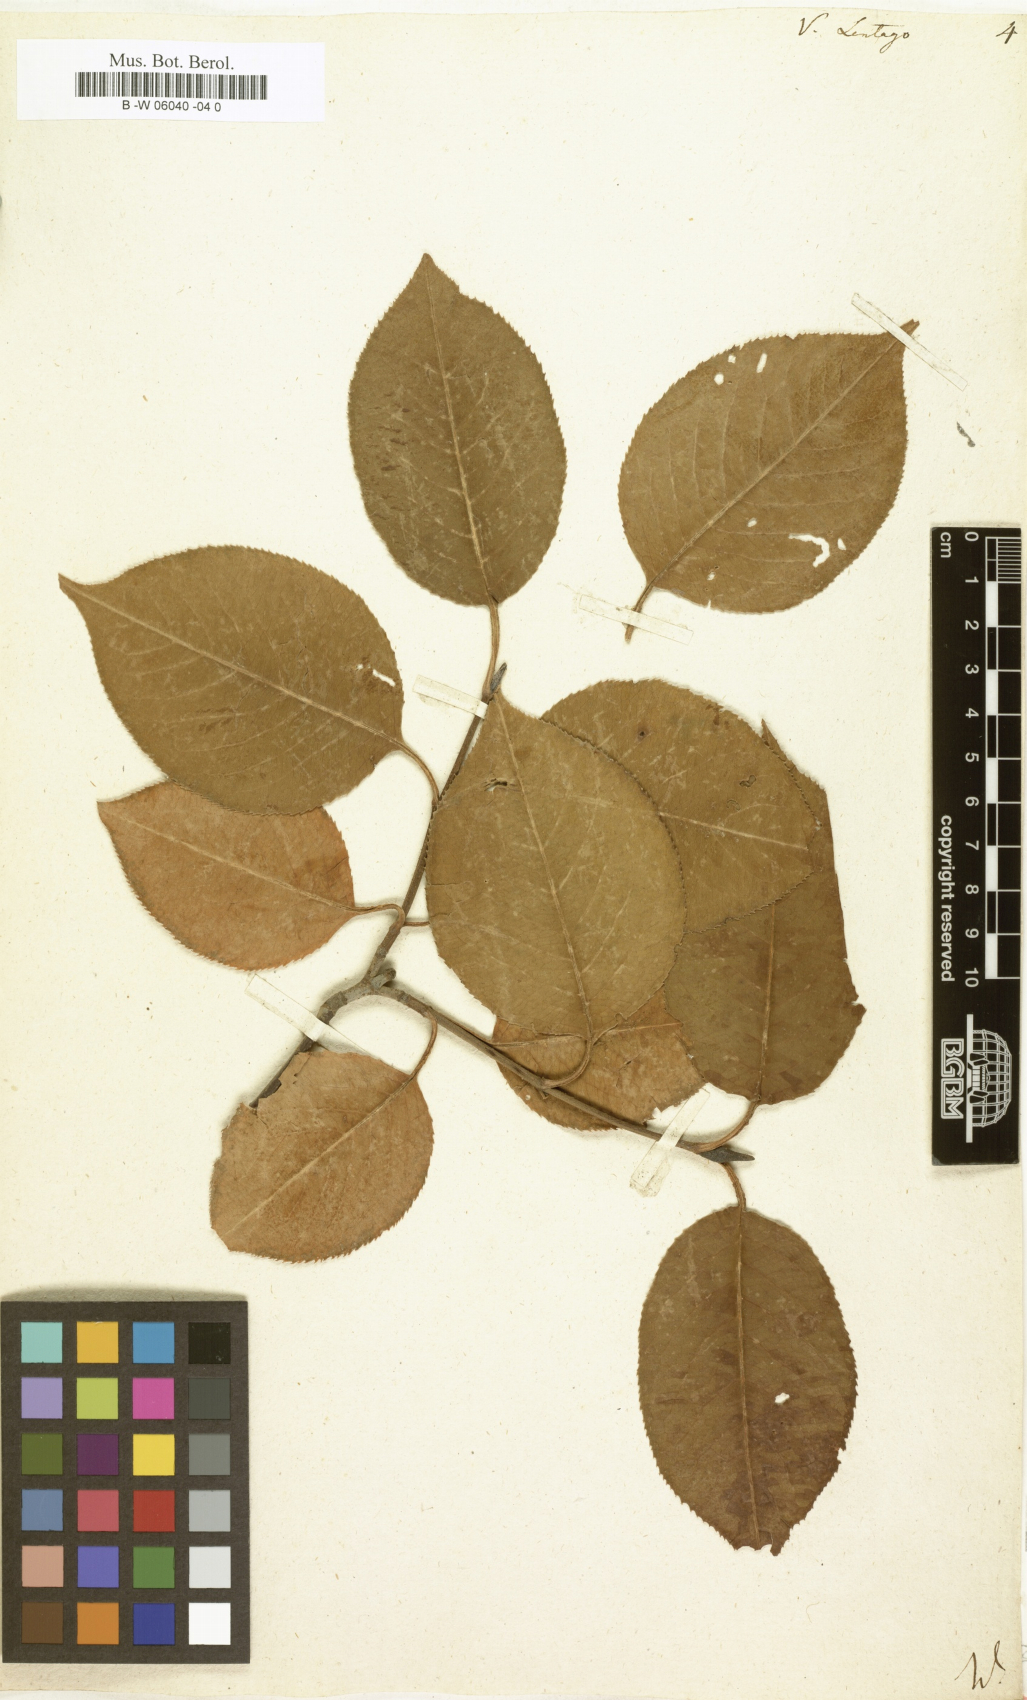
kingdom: Plantae
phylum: Tracheophyta
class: Magnoliopsida
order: Dipsacales
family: Viburnaceae
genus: Viburnum
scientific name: Viburnum lentago
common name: Black haw
